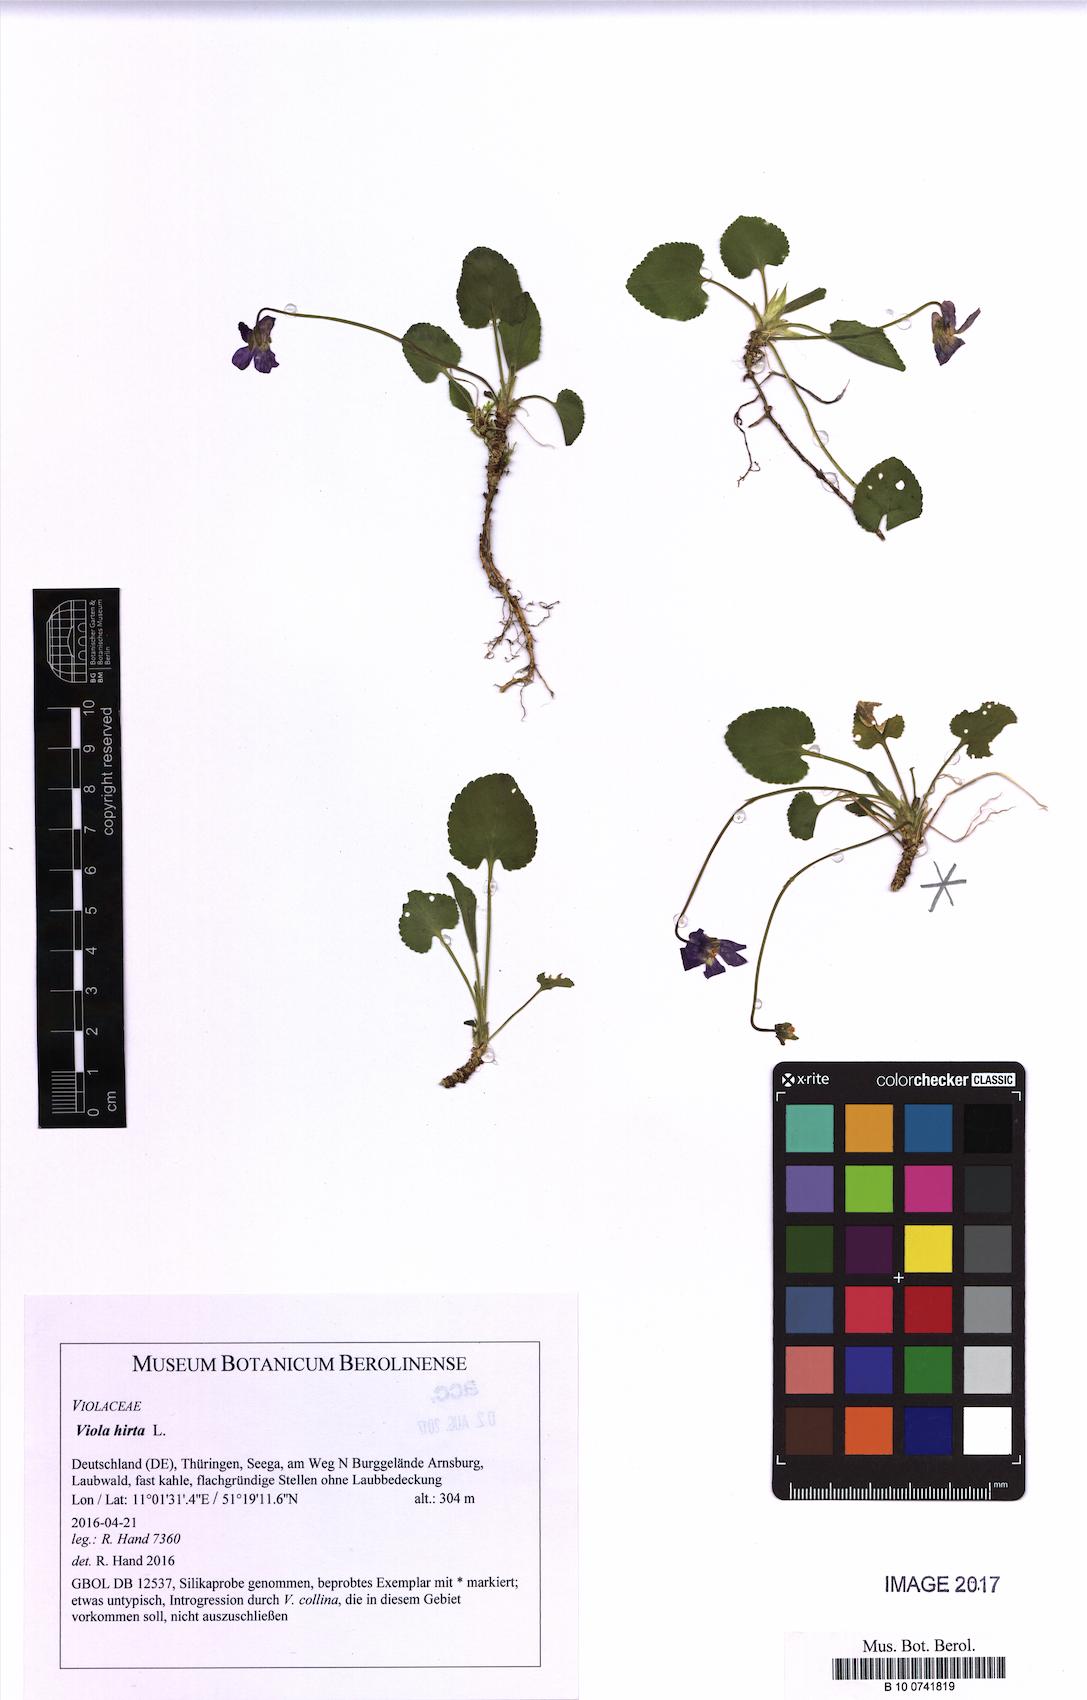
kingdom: Plantae
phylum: Tracheophyta
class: Magnoliopsida
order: Malpighiales
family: Violaceae
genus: Viola
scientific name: Viola hirta
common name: Hairy violet
